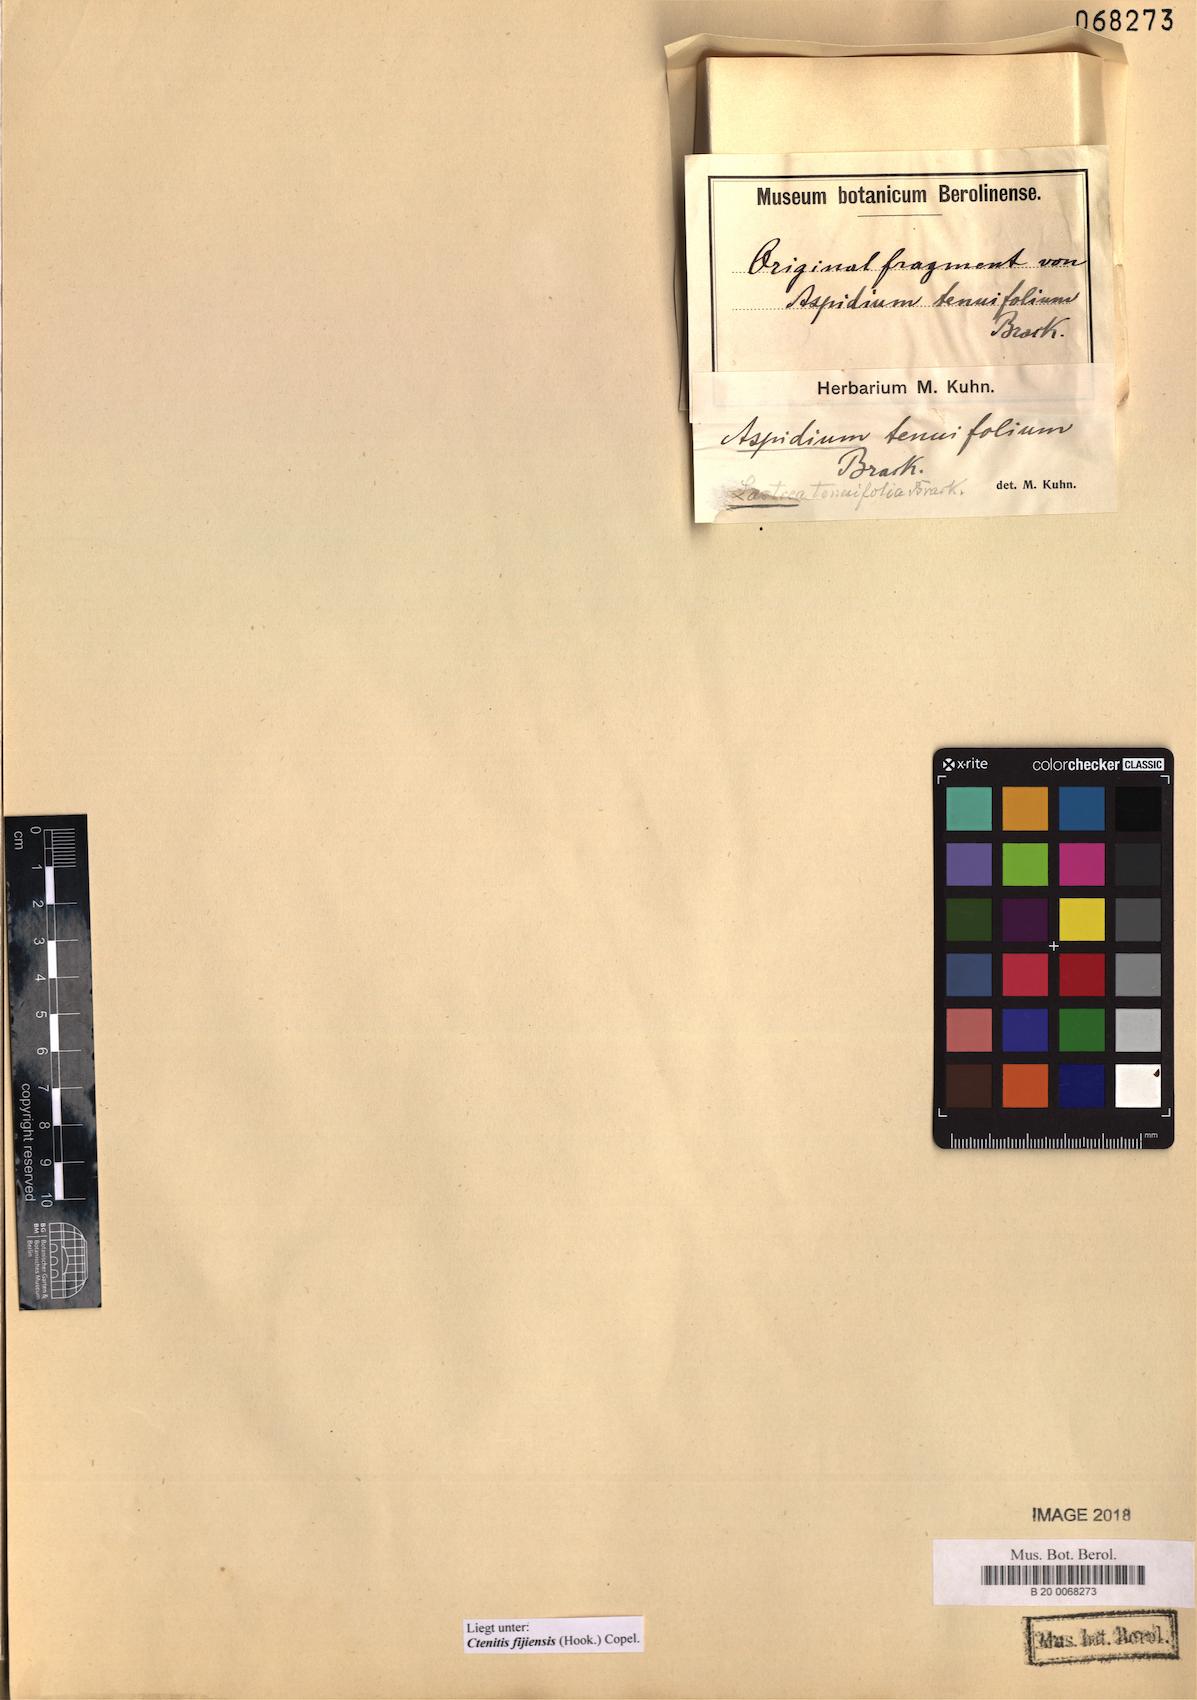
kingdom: Plantae
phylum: Tracheophyta
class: Polypodiopsida
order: Polypodiales
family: Dryopteridaceae
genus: Ctenitis
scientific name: Ctenitis fijiensis
